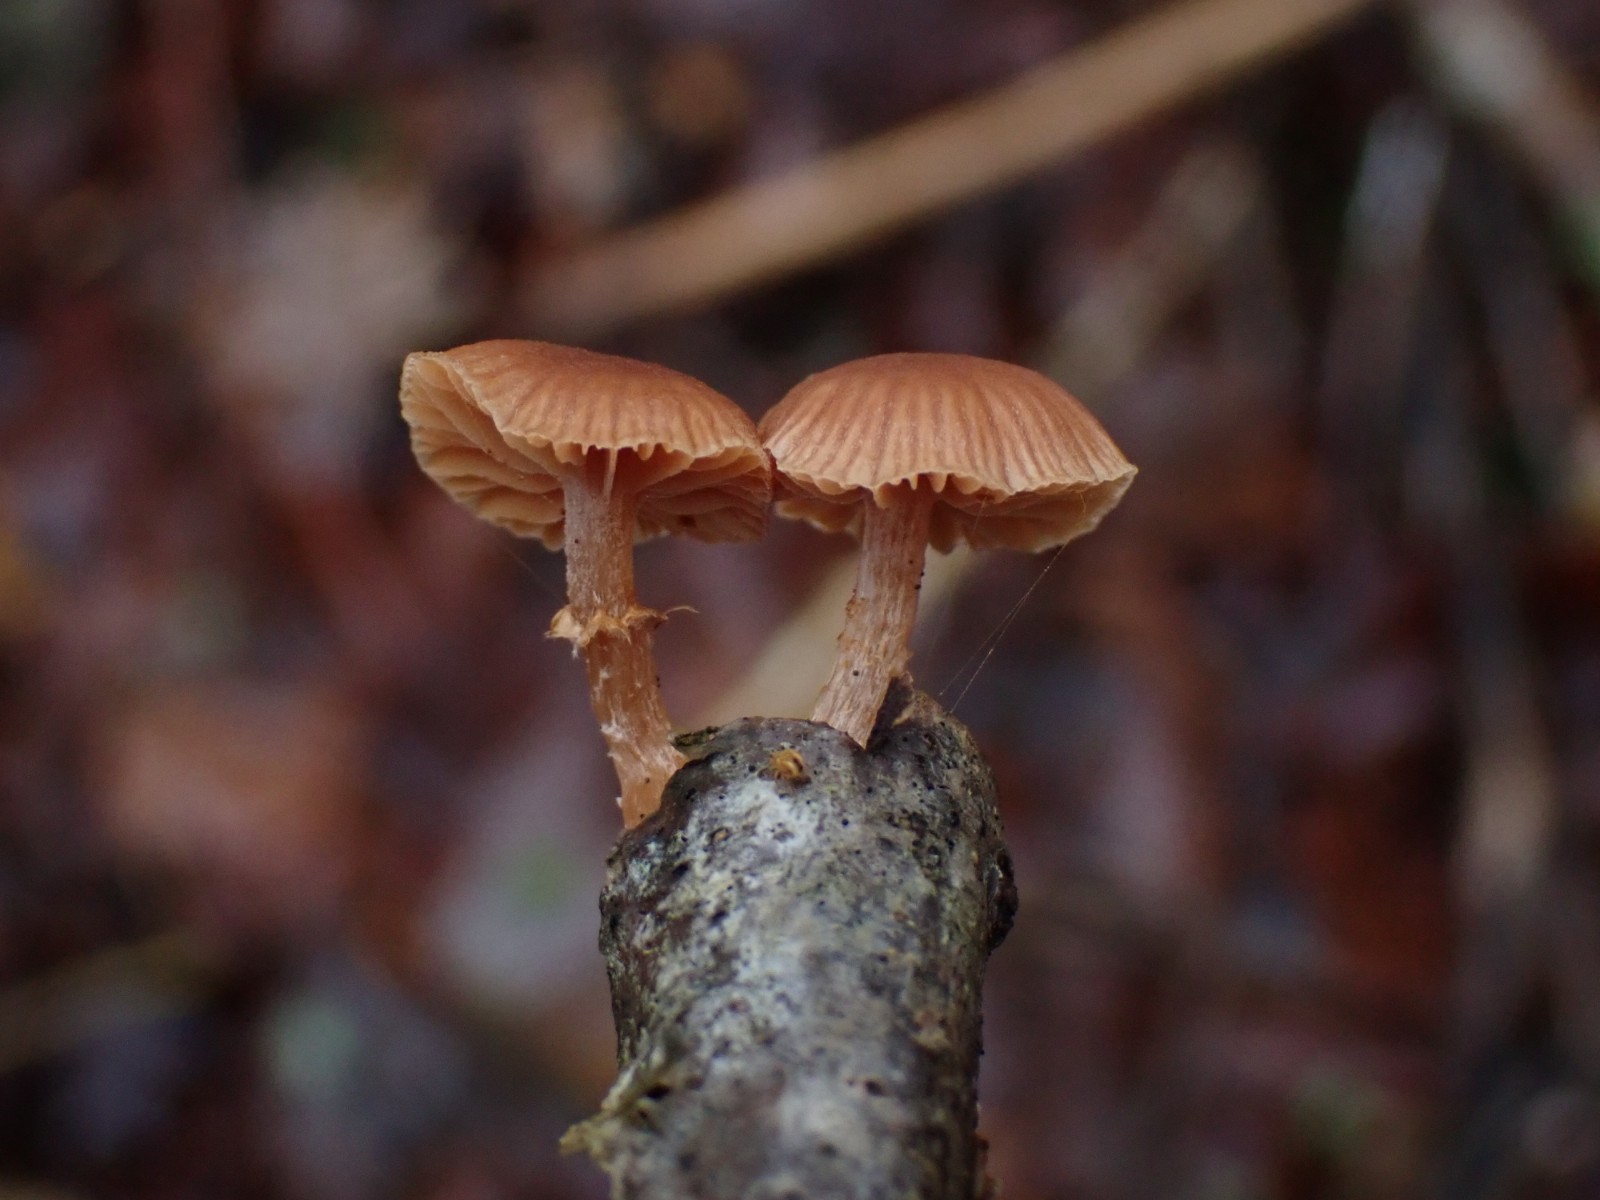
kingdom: Fungi
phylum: Basidiomycota
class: Agaricomycetes
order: Agaricales
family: Tubariaceae
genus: Tubaria
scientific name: Tubaria furfuracea
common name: kliddet fnughat
